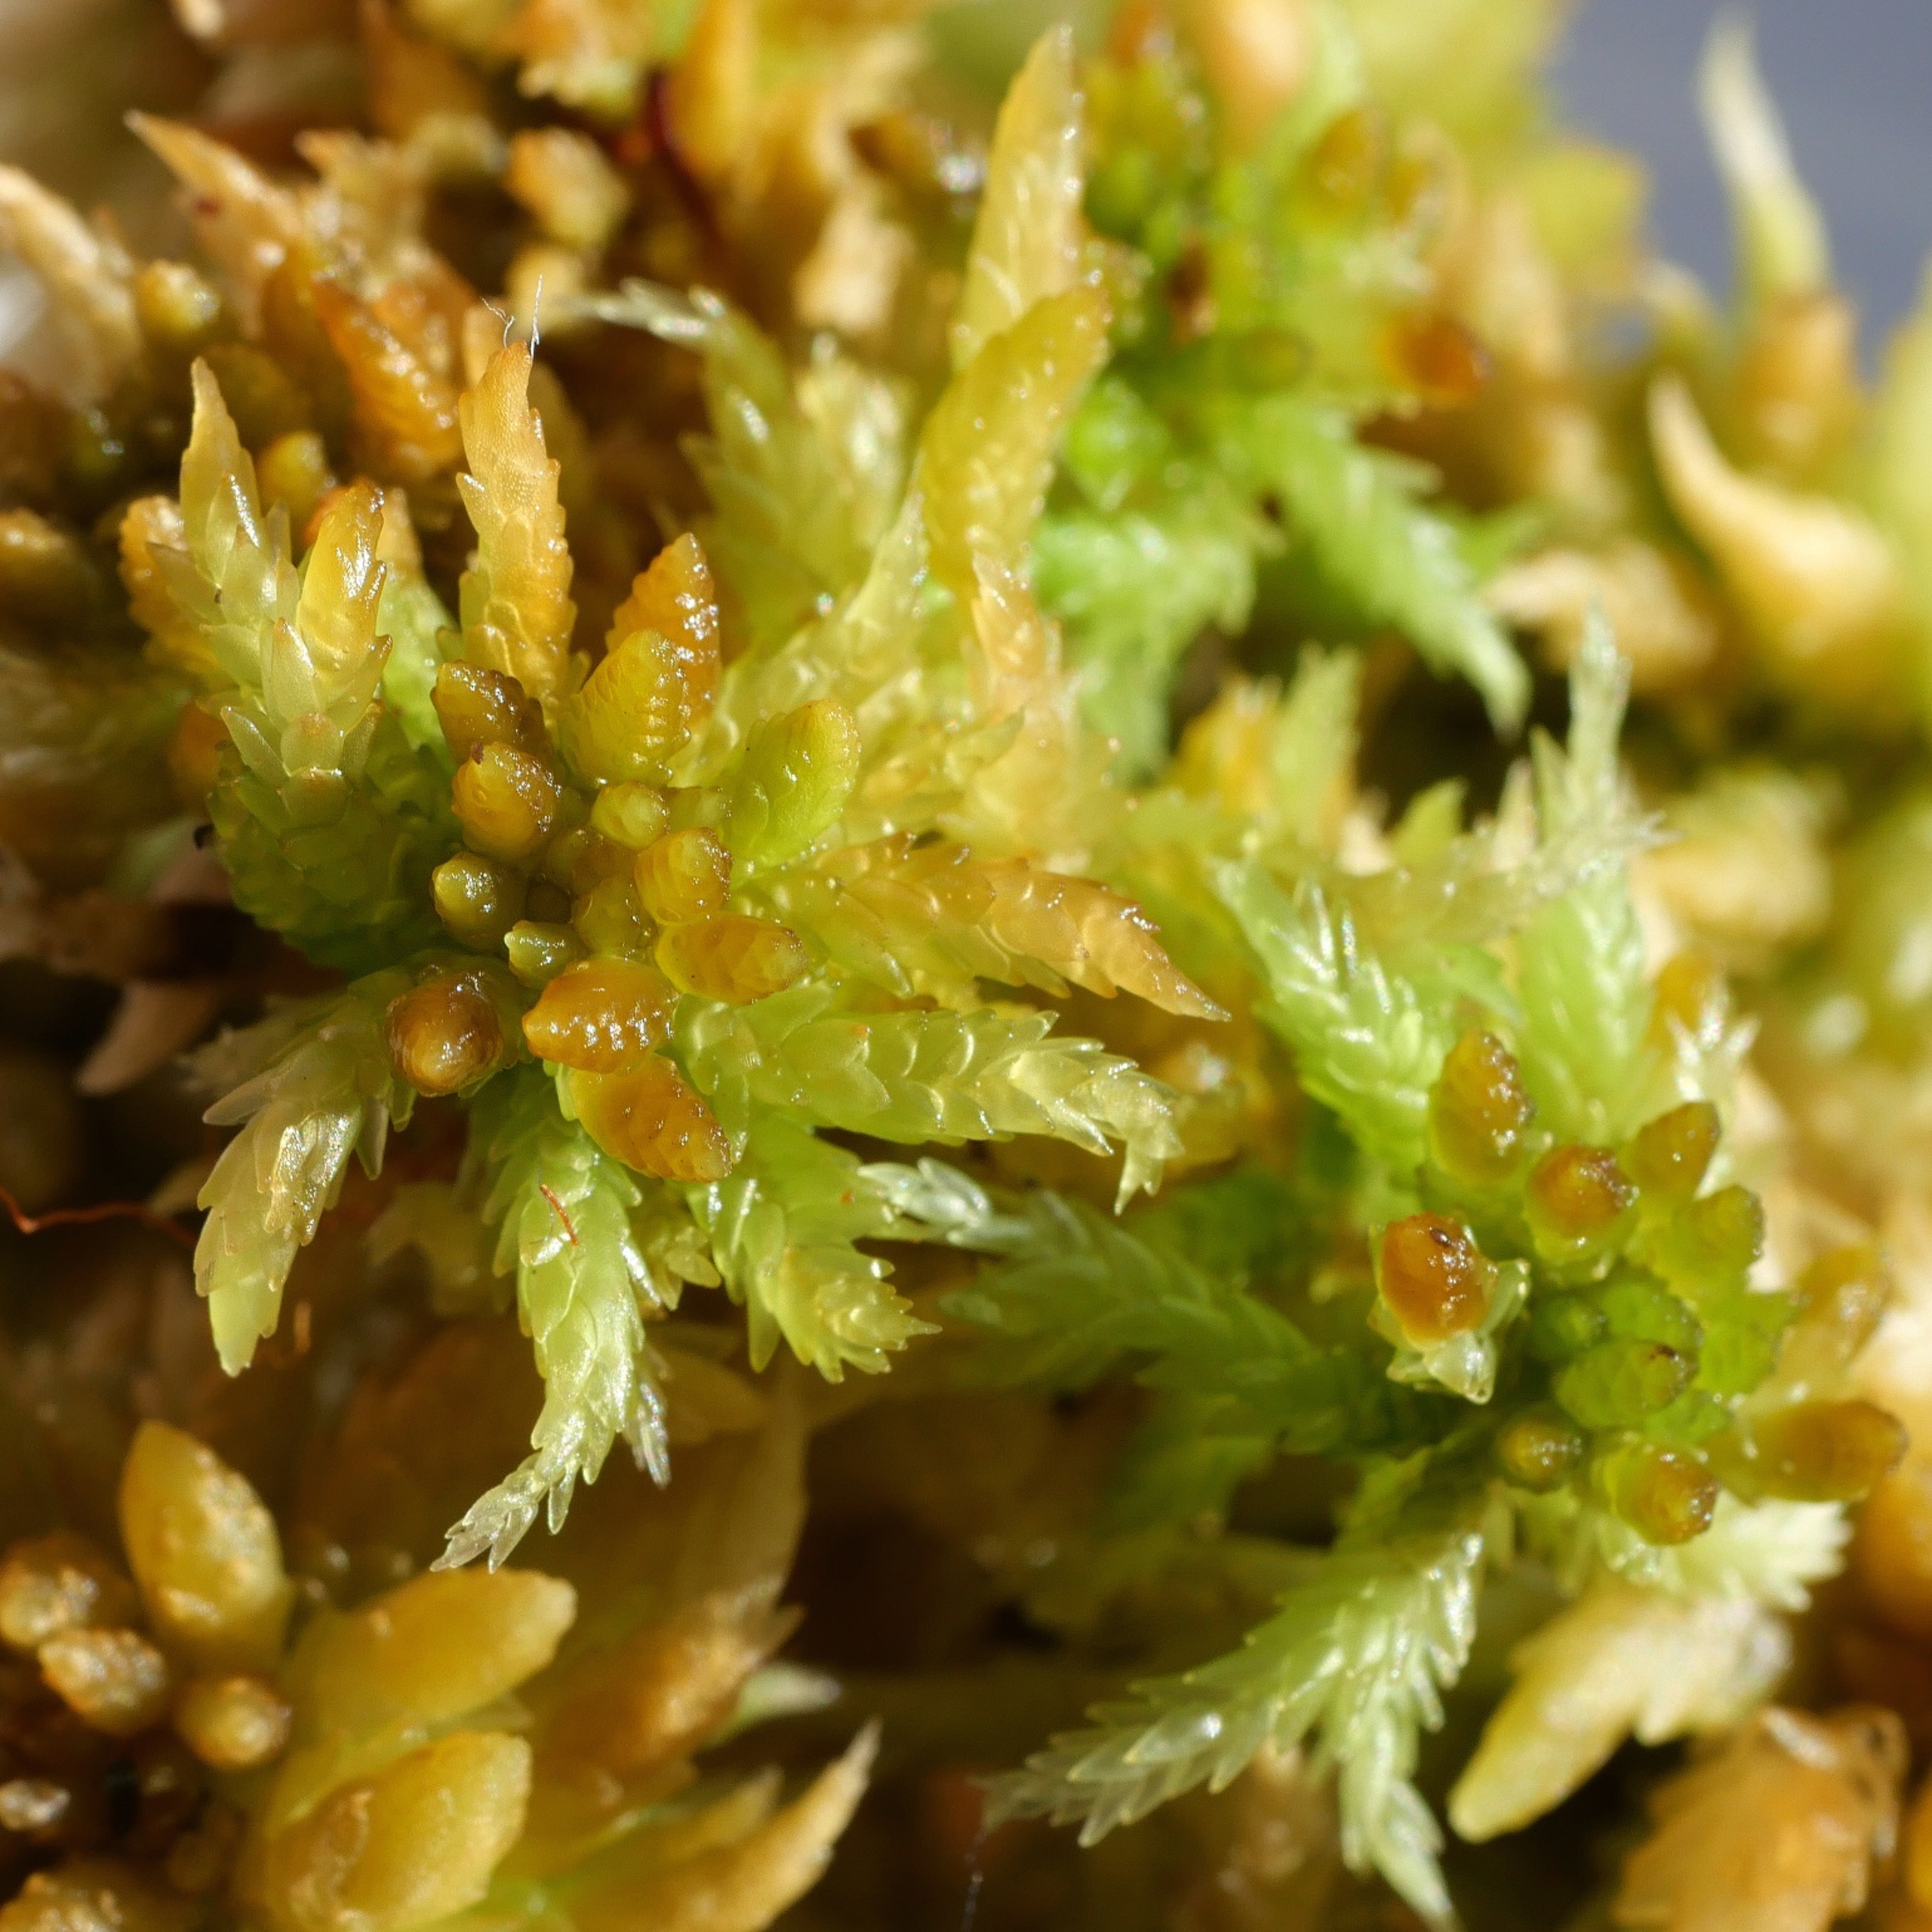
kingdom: Plantae
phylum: Bryophyta
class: Sphagnopsida
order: Sphagnales
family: Sphagnaceae
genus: Sphagnum
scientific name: Sphagnum affine
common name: Stribet tørvemos
